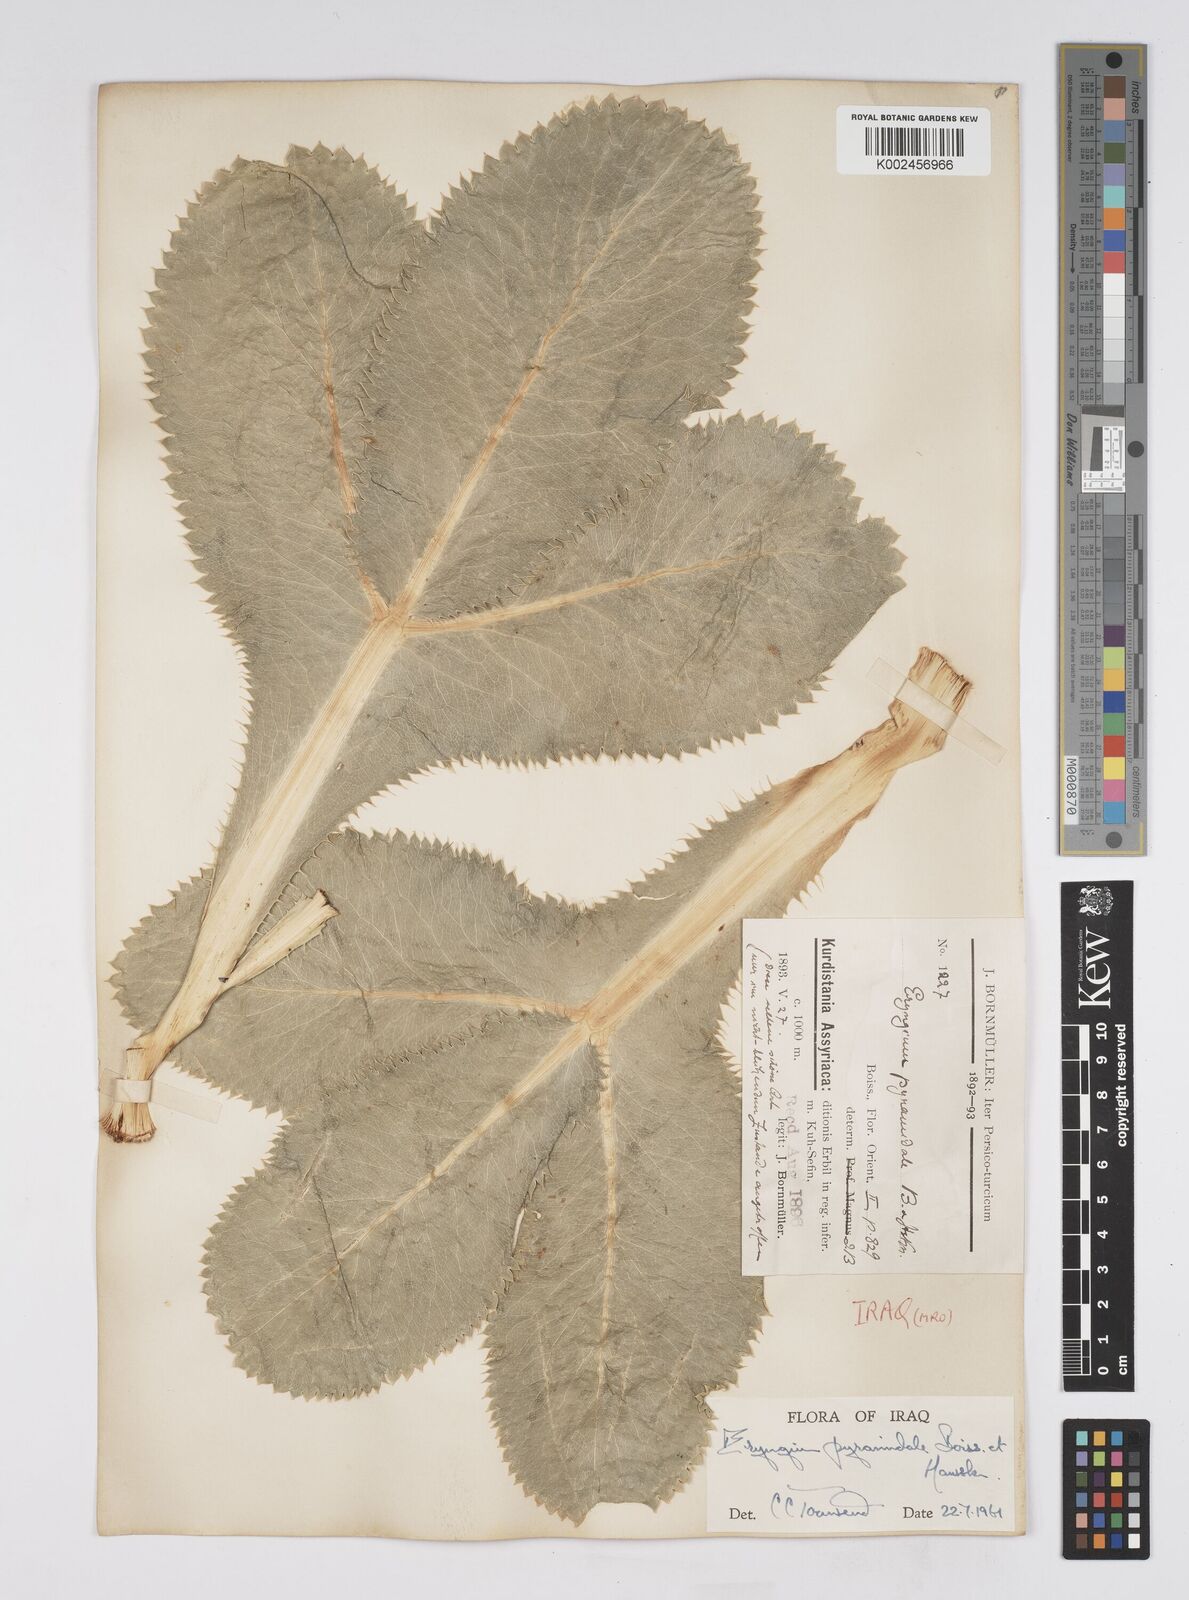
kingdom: Plantae
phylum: Tracheophyta
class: Magnoliopsida
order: Apiales
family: Apiaceae
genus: Eryngium
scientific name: Eryngium pyramidale
